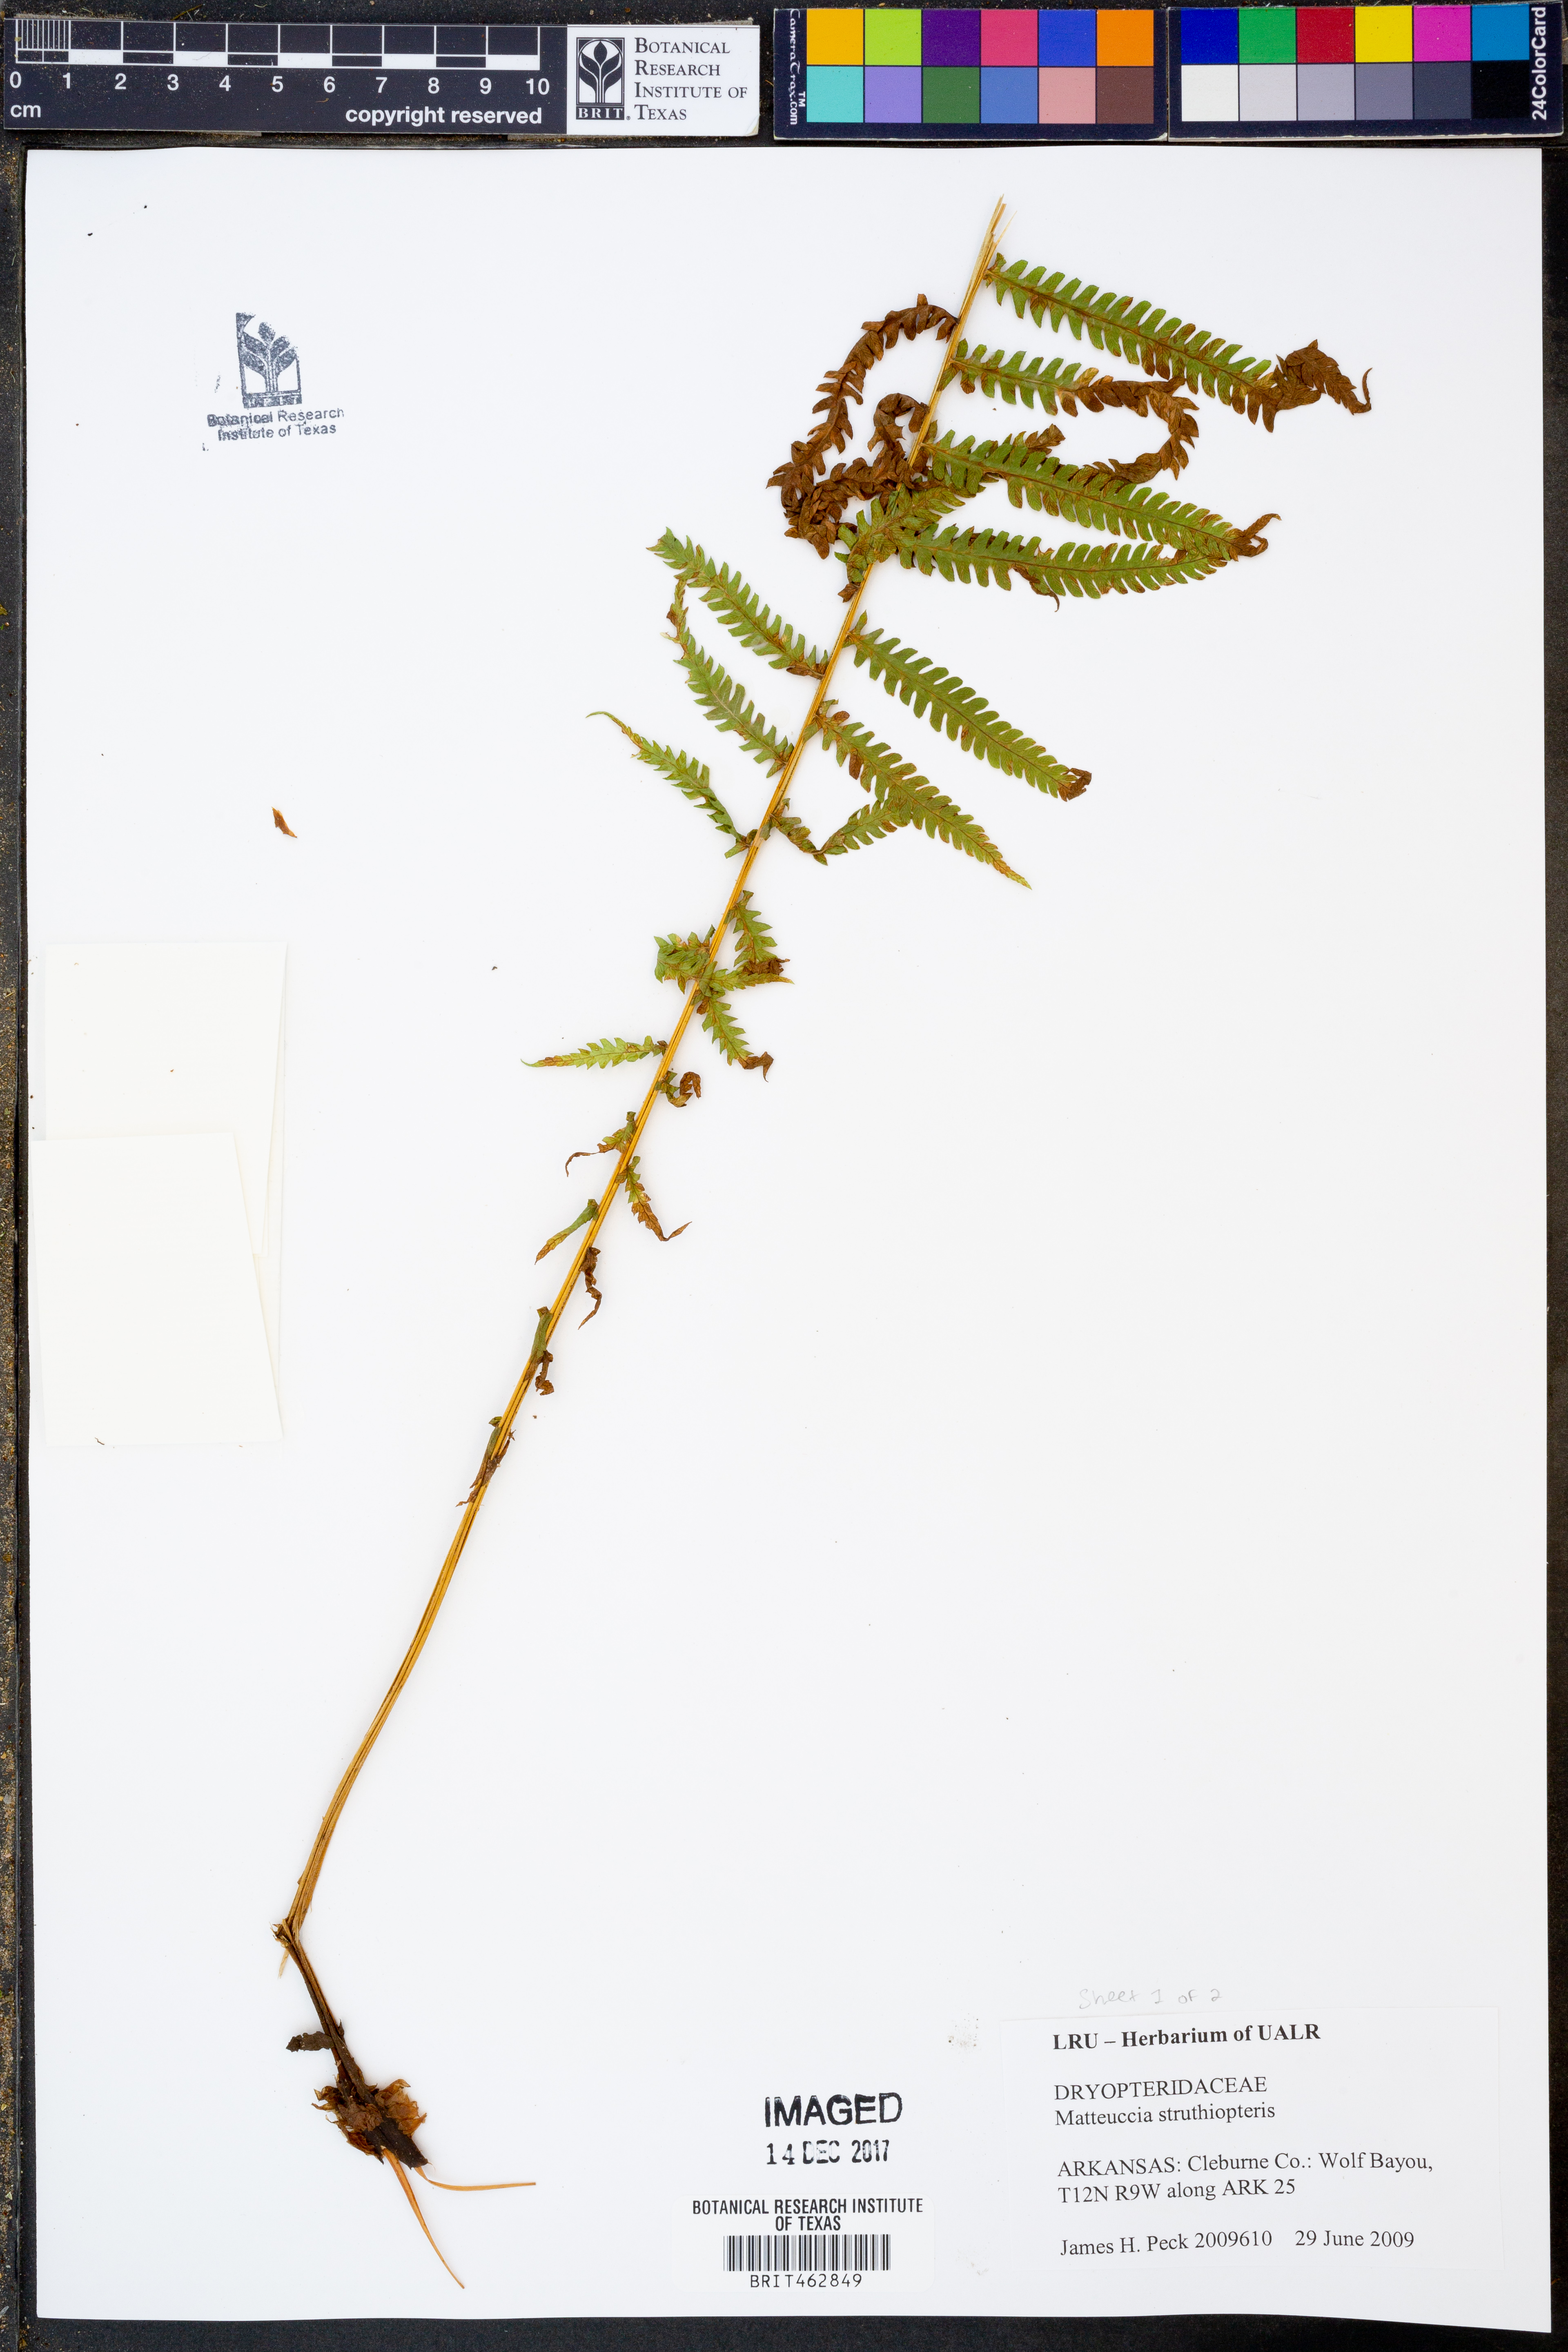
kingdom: Plantae
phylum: Tracheophyta
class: Polypodiopsida
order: Polypodiales
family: Onocleaceae
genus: Matteuccia
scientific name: Matteuccia struthiopteris
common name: Ostrich fern
